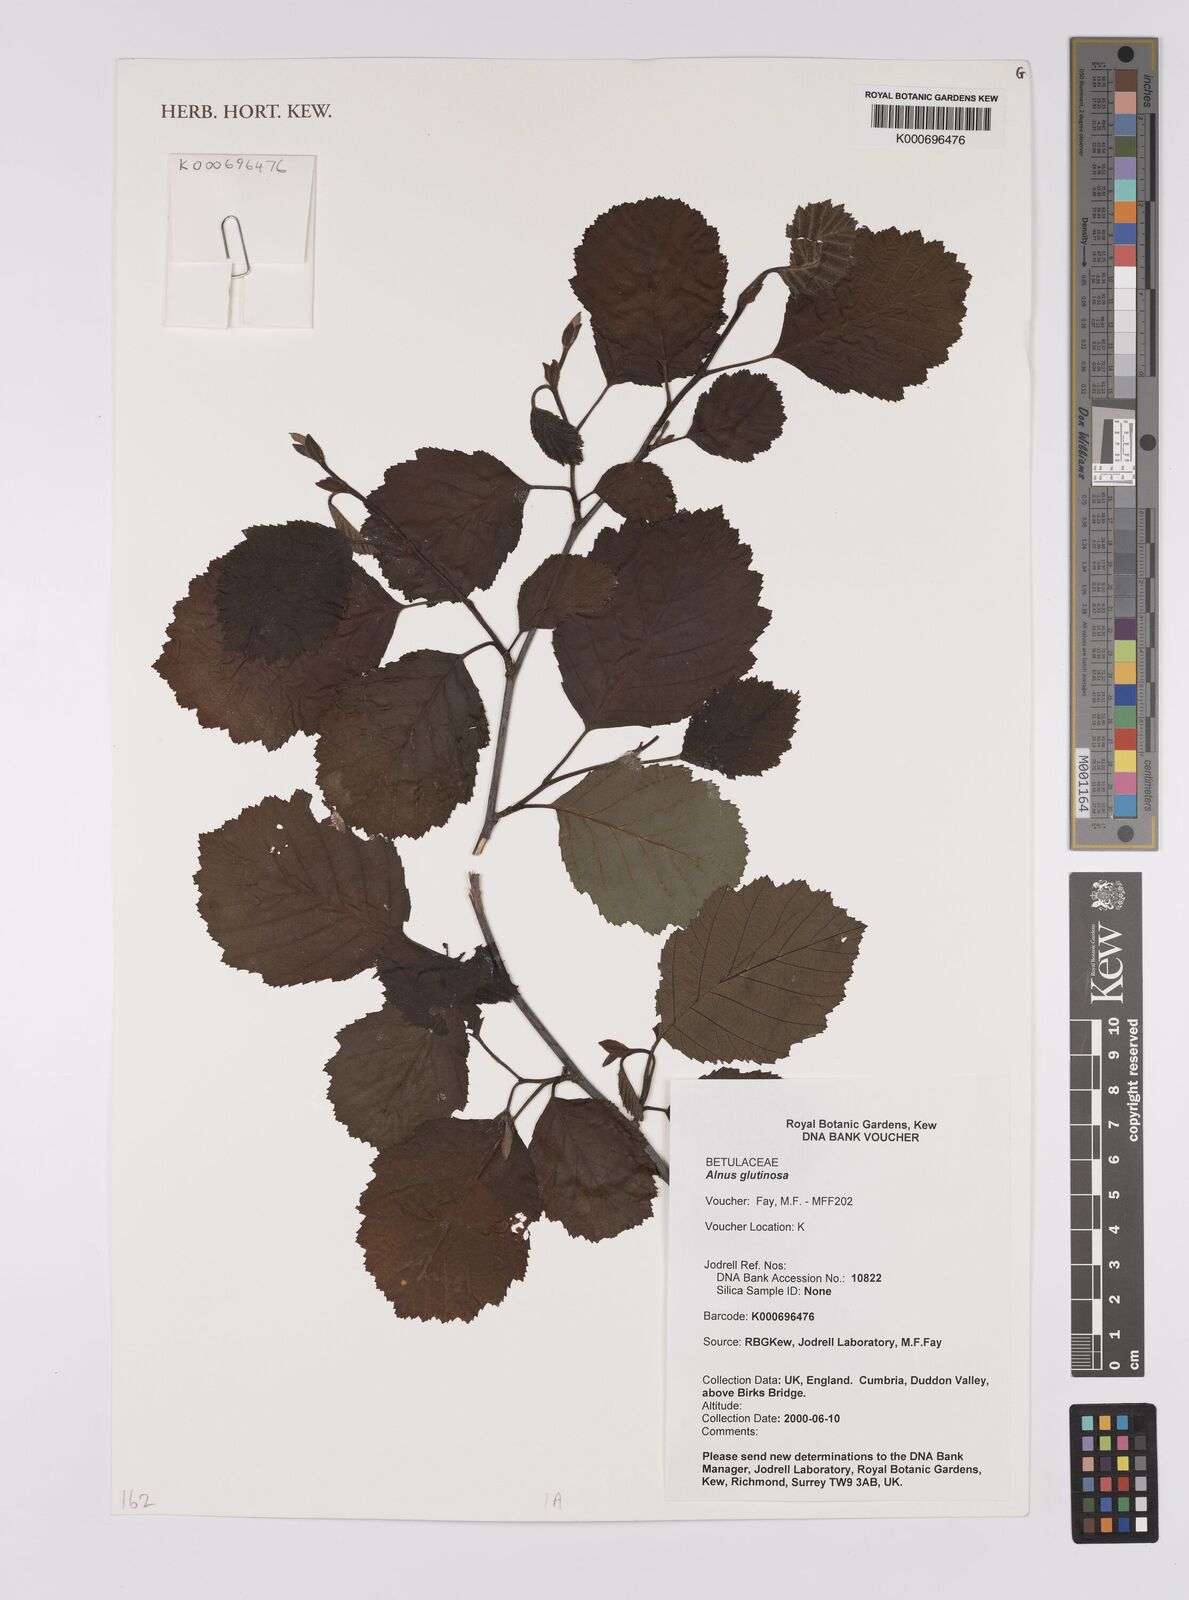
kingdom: Plantae
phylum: Tracheophyta
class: Magnoliopsida
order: Fagales
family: Betulaceae
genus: Alnus
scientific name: Alnus glutinosa
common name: Black alder
